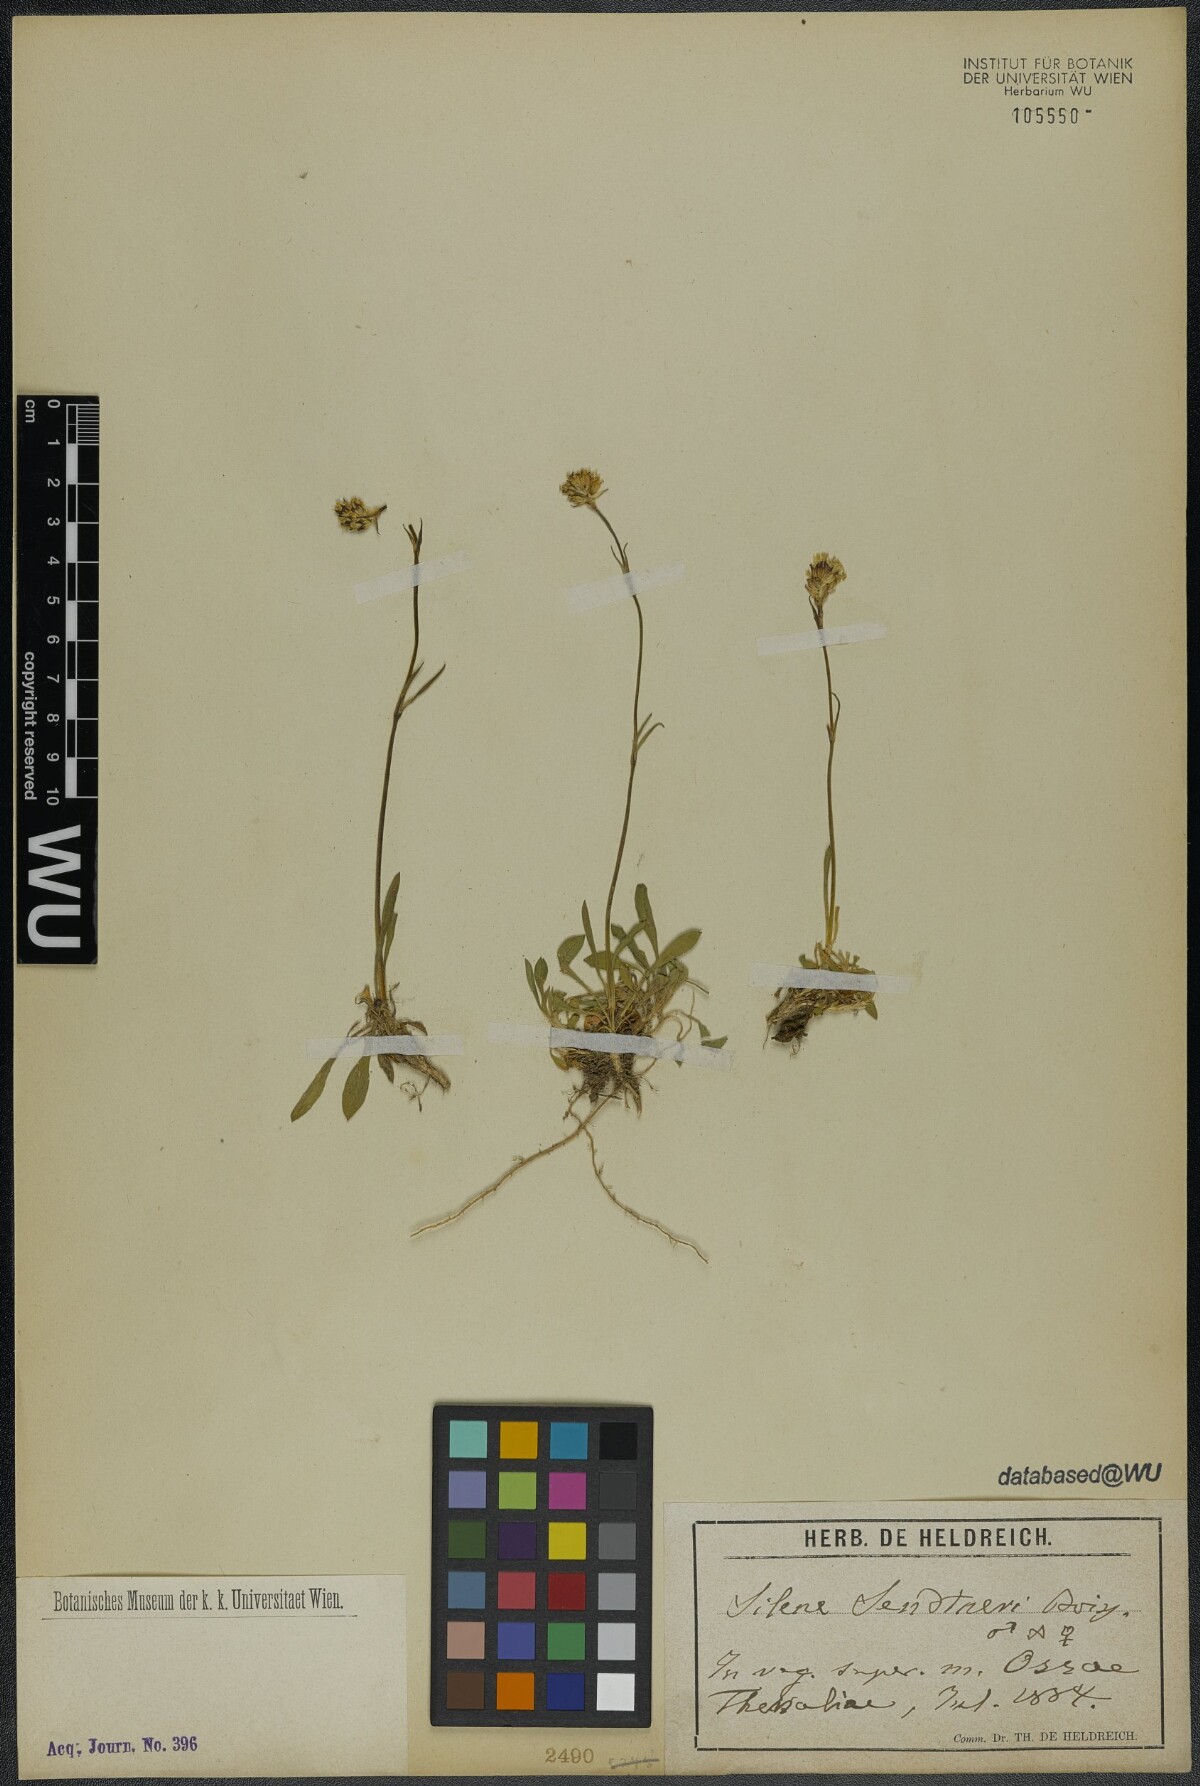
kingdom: Plantae
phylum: Tracheophyta
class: Magnoliopsida
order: Caryophyllales
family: Caryophyllaceae
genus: Silene
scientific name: Silene sendtneri
